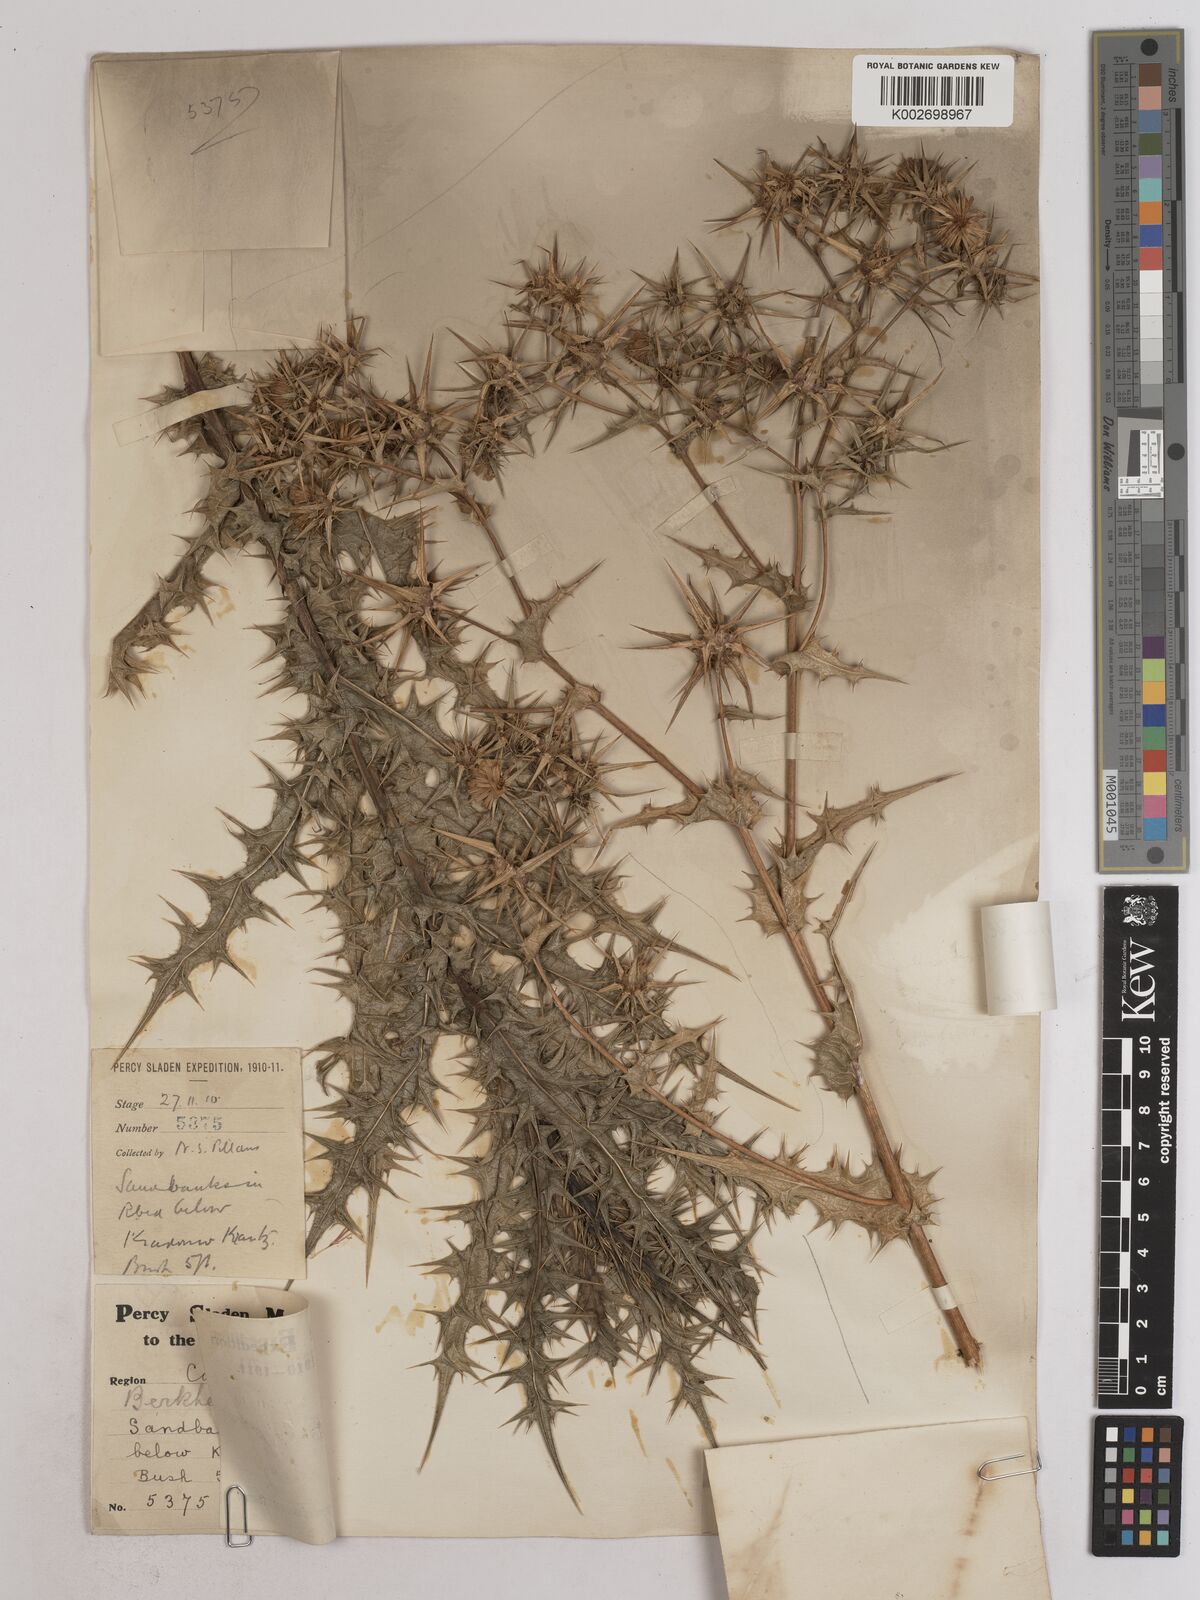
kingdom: Plantae
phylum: Tracheophyta
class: Magnoliopsida
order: Asterales
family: Asteraceae
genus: Berkheya
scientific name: Berkheya viscosa
